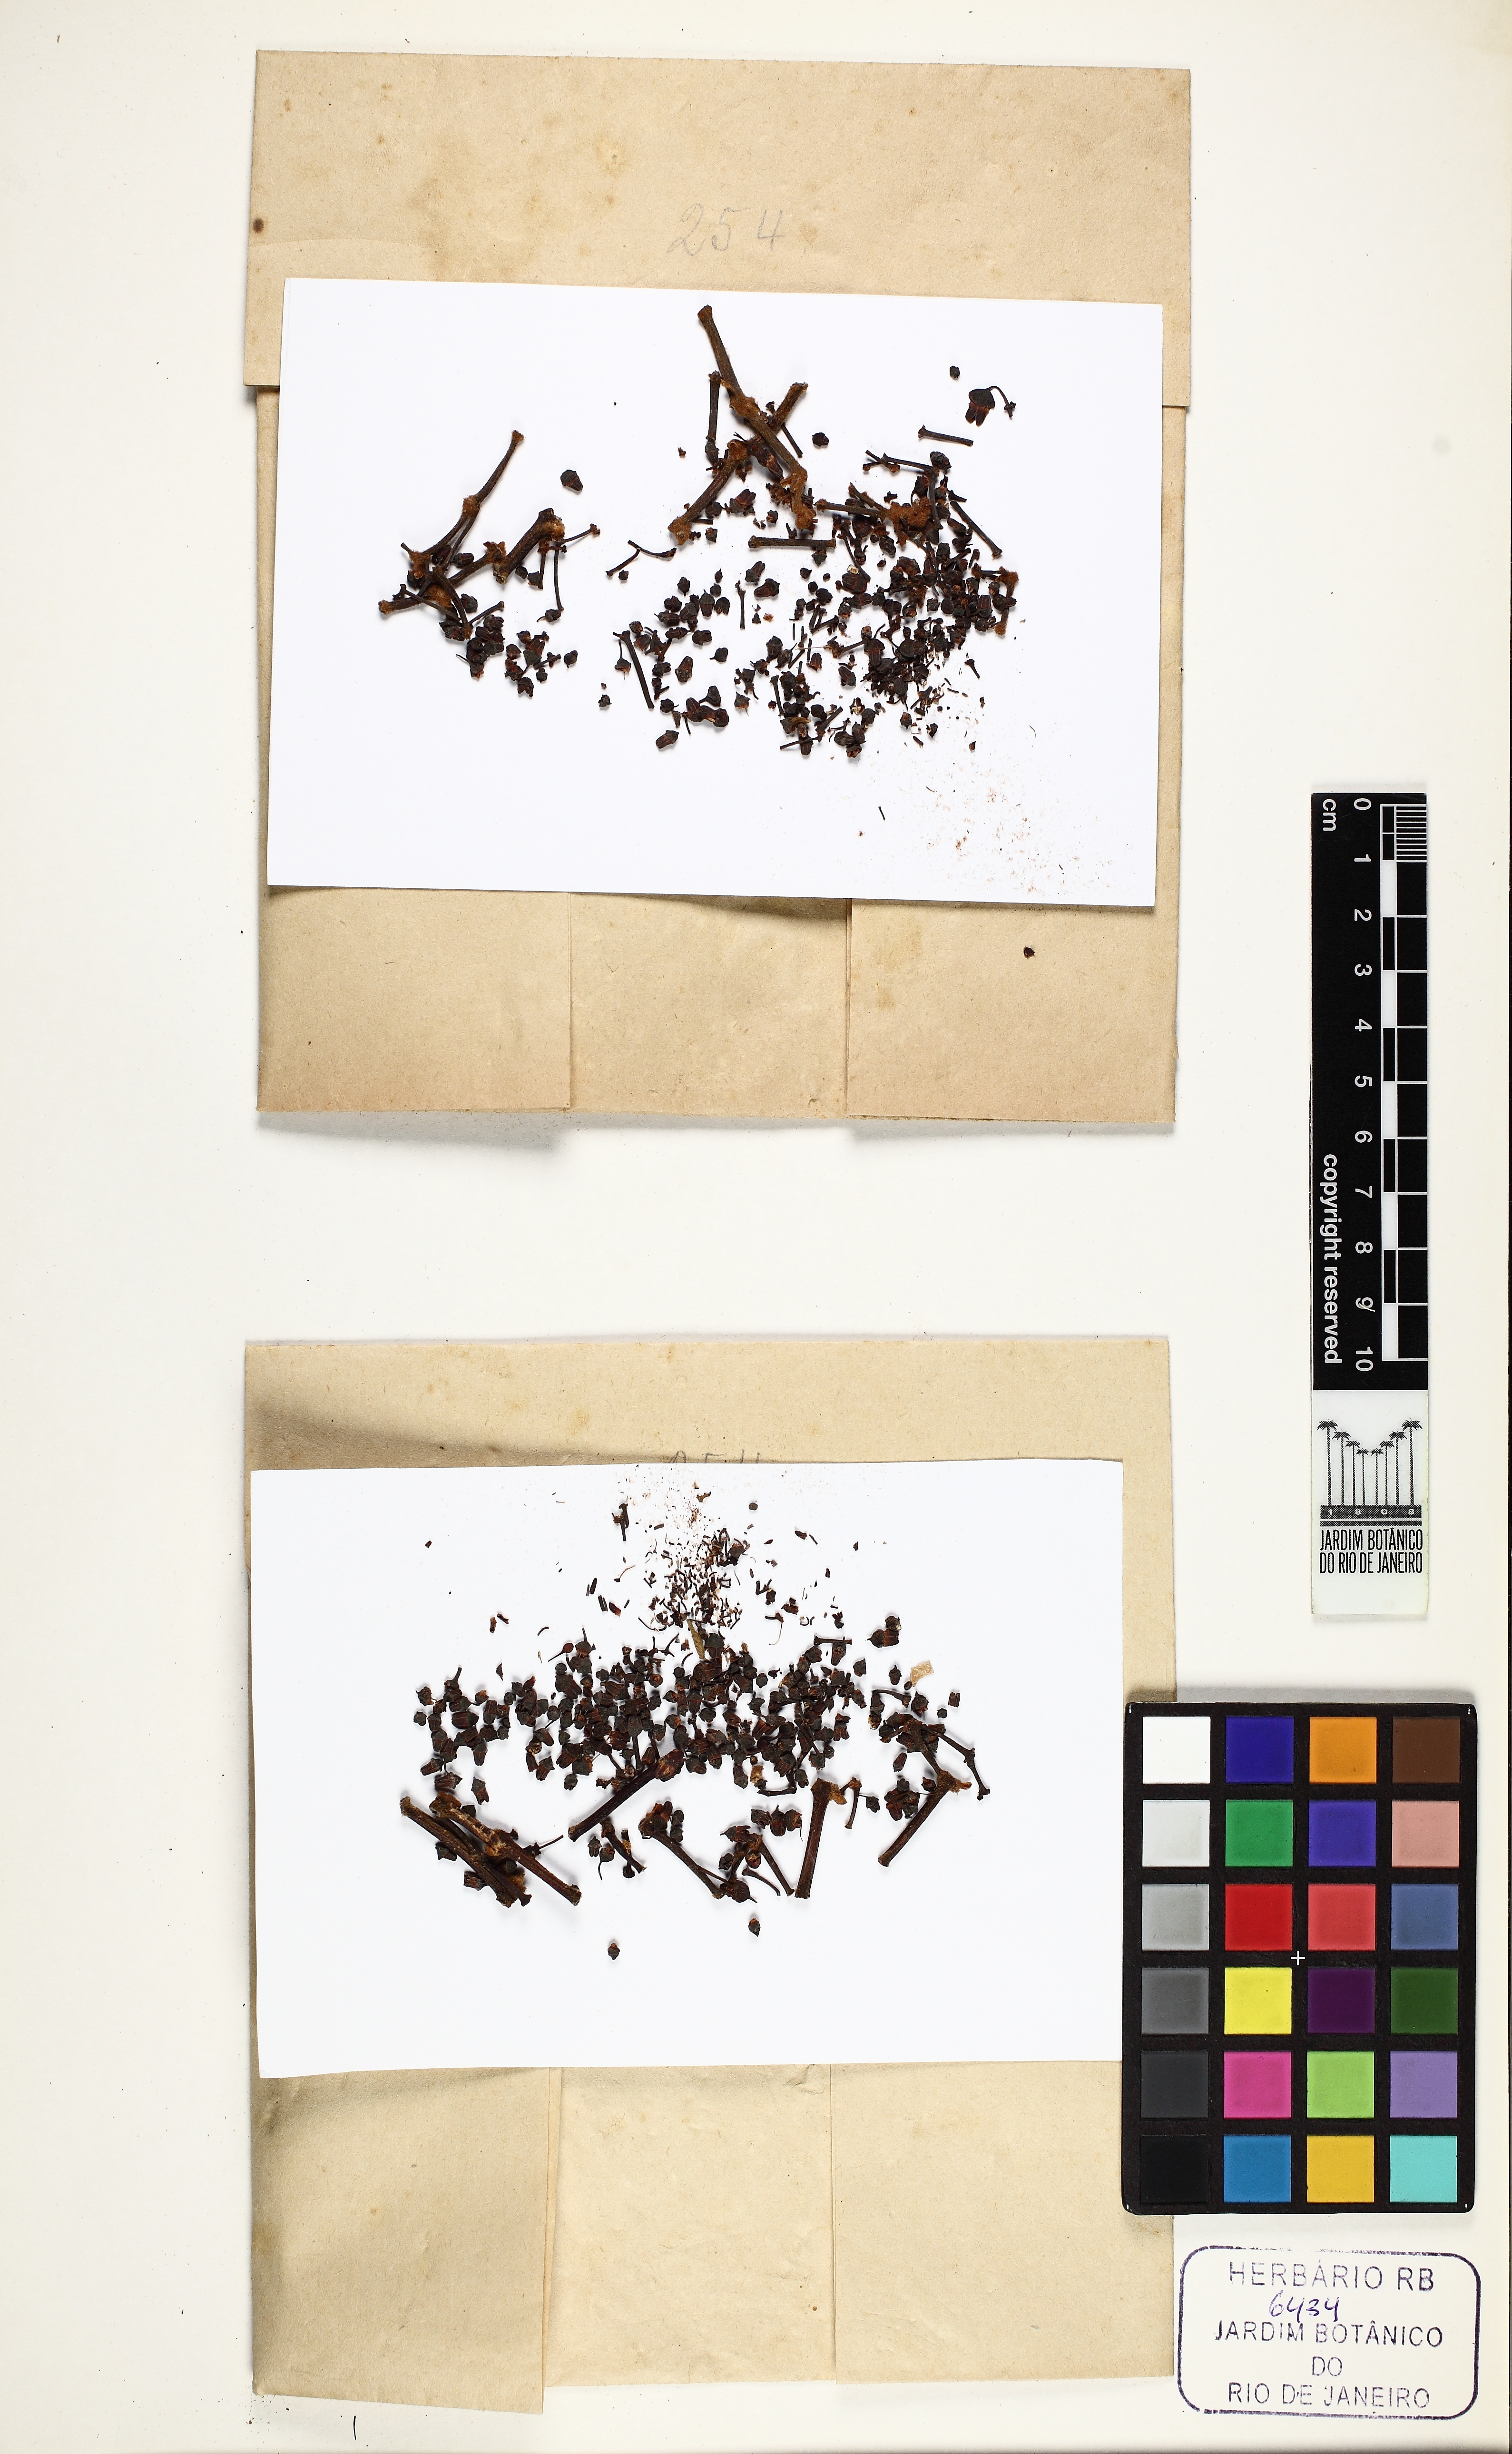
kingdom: Plantae
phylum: Tracheophyta
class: Magnoliopsida
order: Vitales
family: Vitaceae
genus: Cissus
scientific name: Cissus decidua
